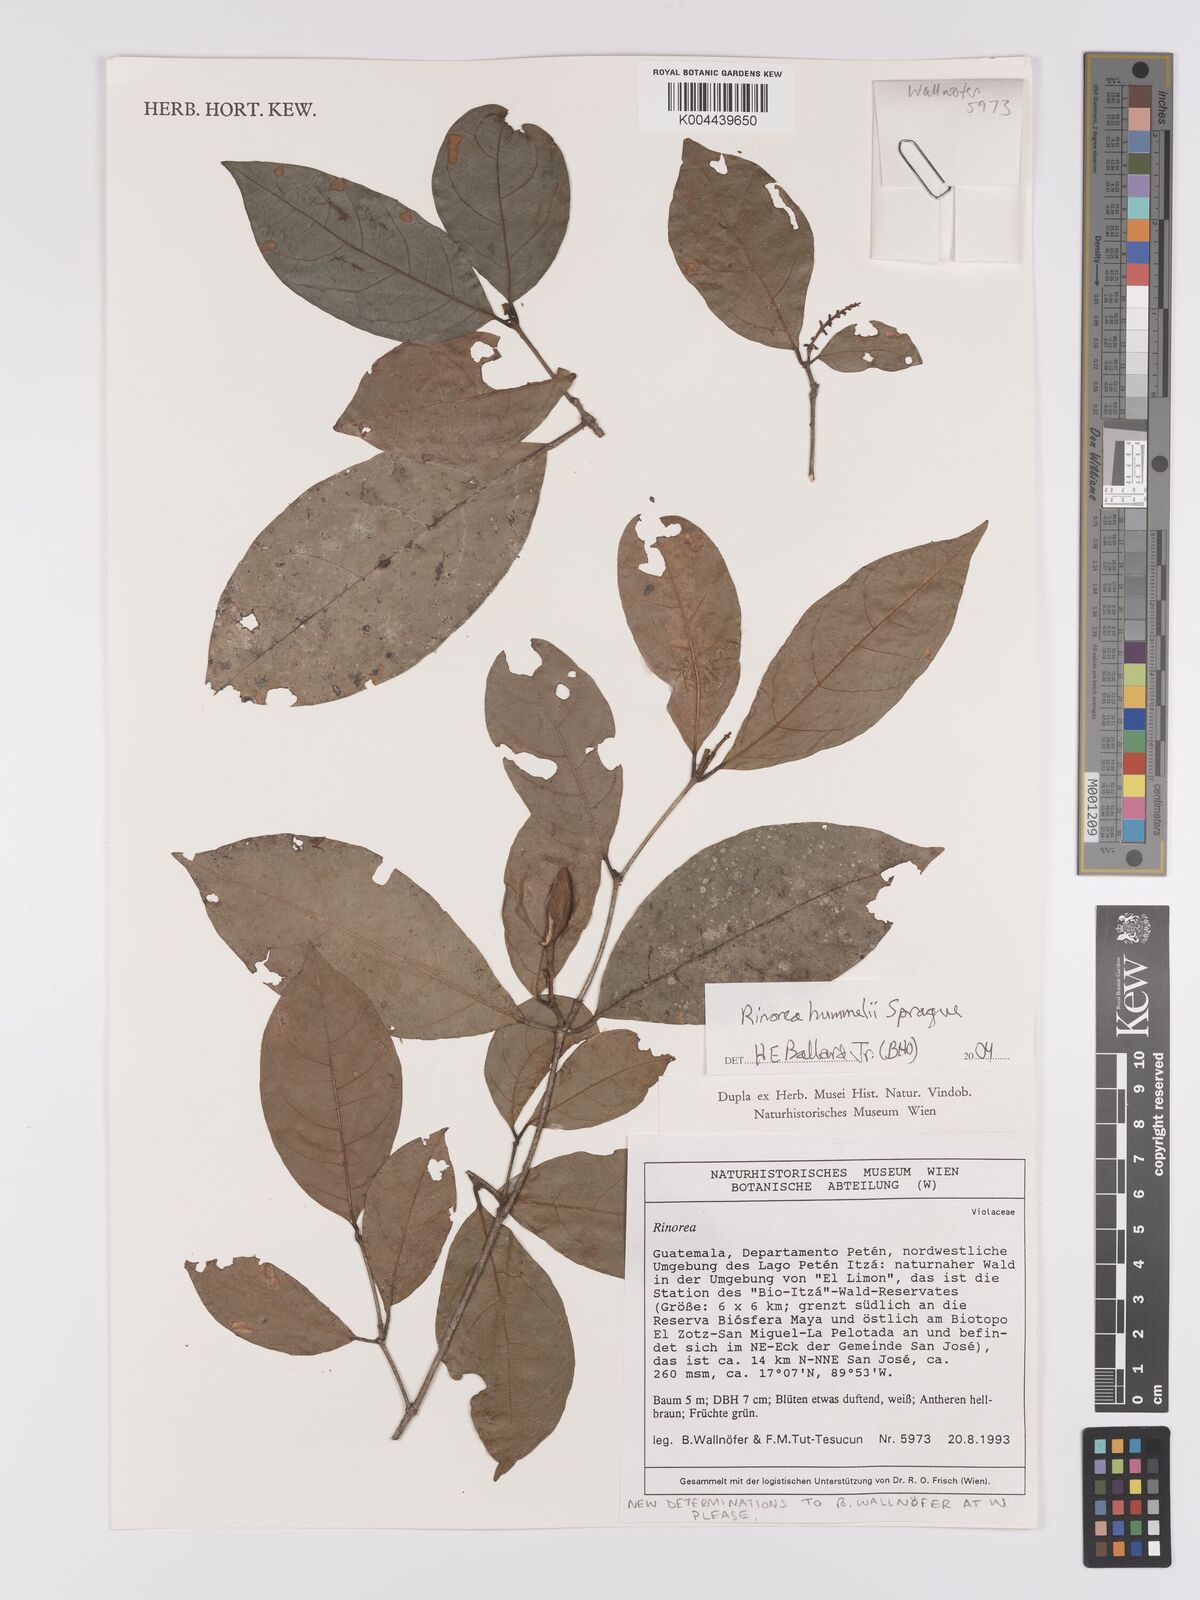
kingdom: Plantae
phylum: Tracheophyta
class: Magnoliopsida
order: Malpighiales
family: Violaceae
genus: Rinorea
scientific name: Rinorea
